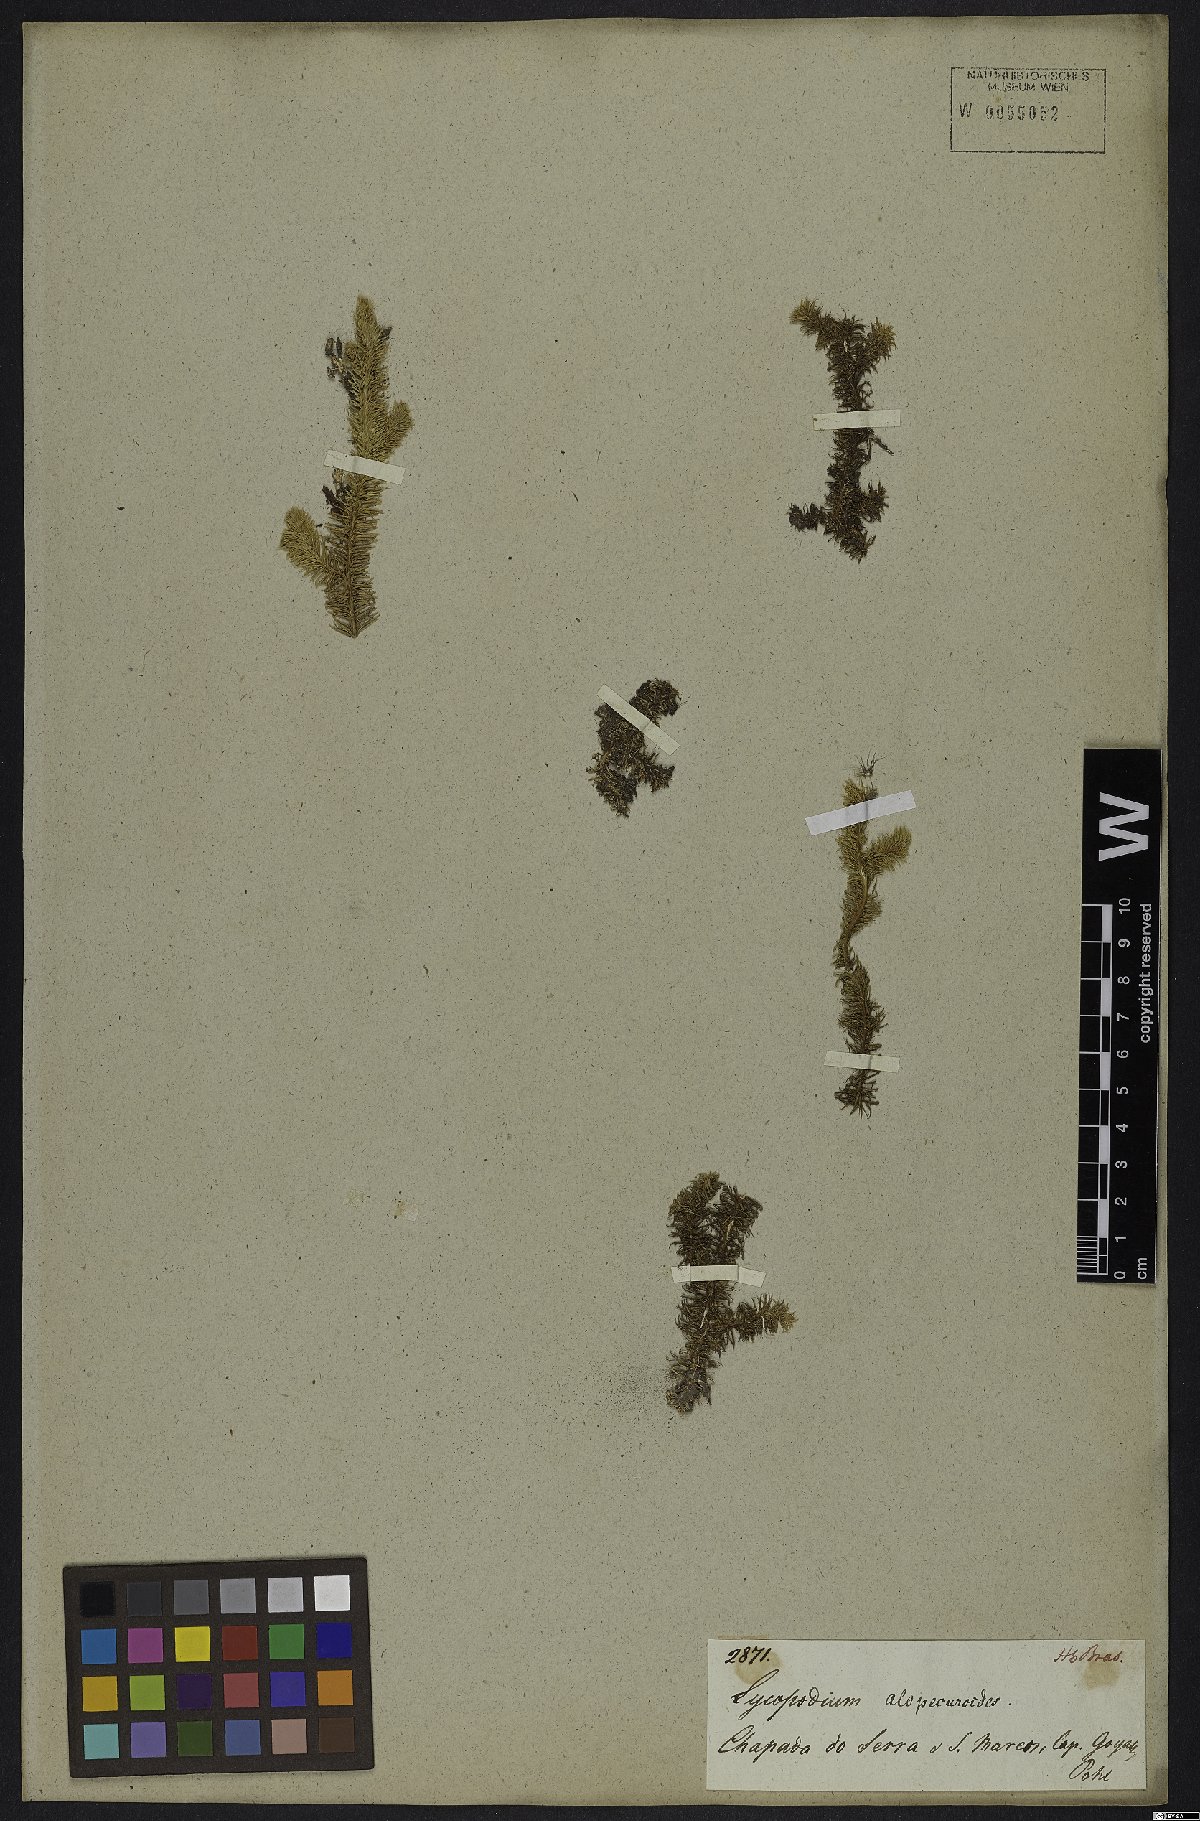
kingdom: Plantae
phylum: Tracheophyta
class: Lycopodiopsida
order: Lycopodiales
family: Lycopodiaceae
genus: Lycopodiella
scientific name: Lycopodiella alopecuroides
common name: Foxtail clubmoss
